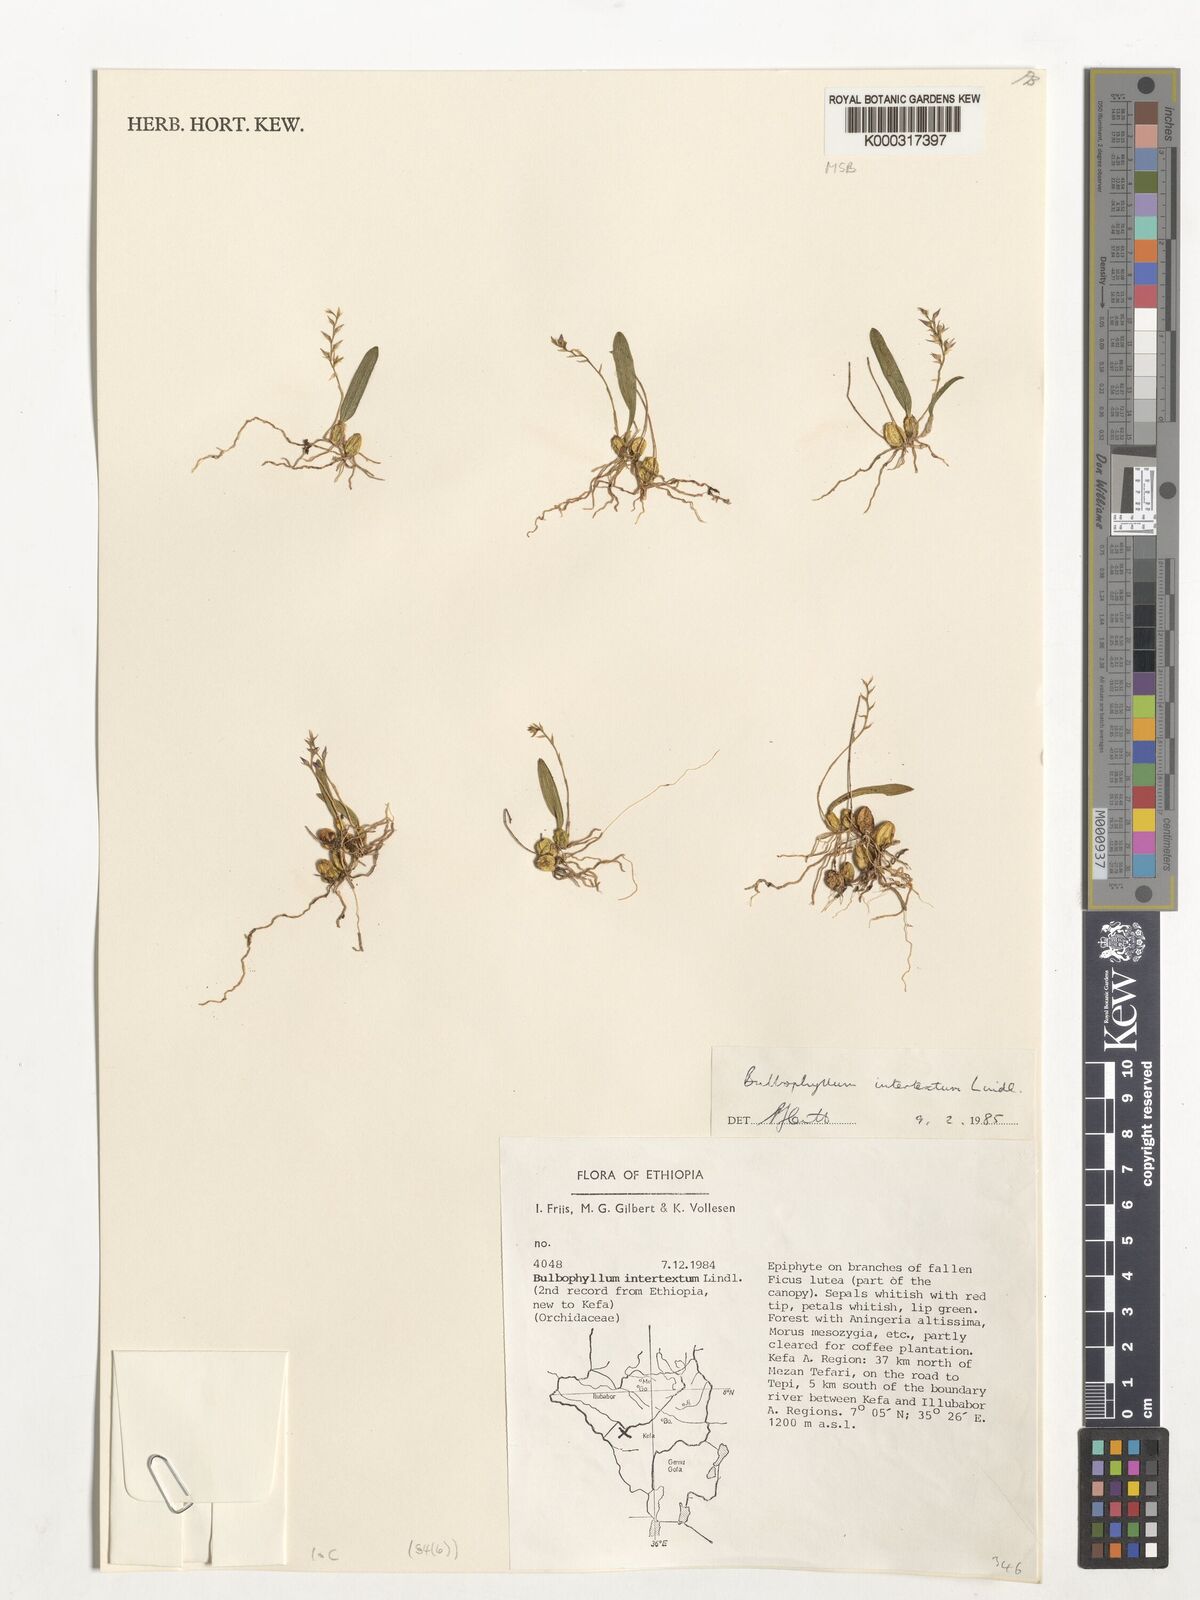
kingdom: Plantae
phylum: Tracheophyta
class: Liliopsida
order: Asparagales
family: Orchidaceae
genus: Bulbophyllum
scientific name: Bulbophyllum intertextum
